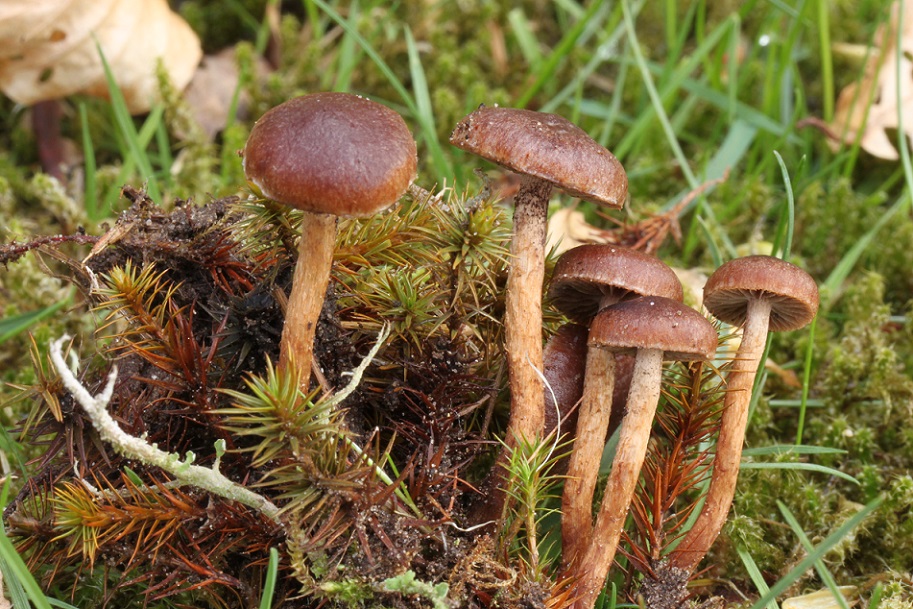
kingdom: Fungi
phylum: Basidiomycota
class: Agaricomycetes
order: Agaricales
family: Strophariaceae
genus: Deconica
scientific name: Deconica montana
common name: rødbrun stråhat
